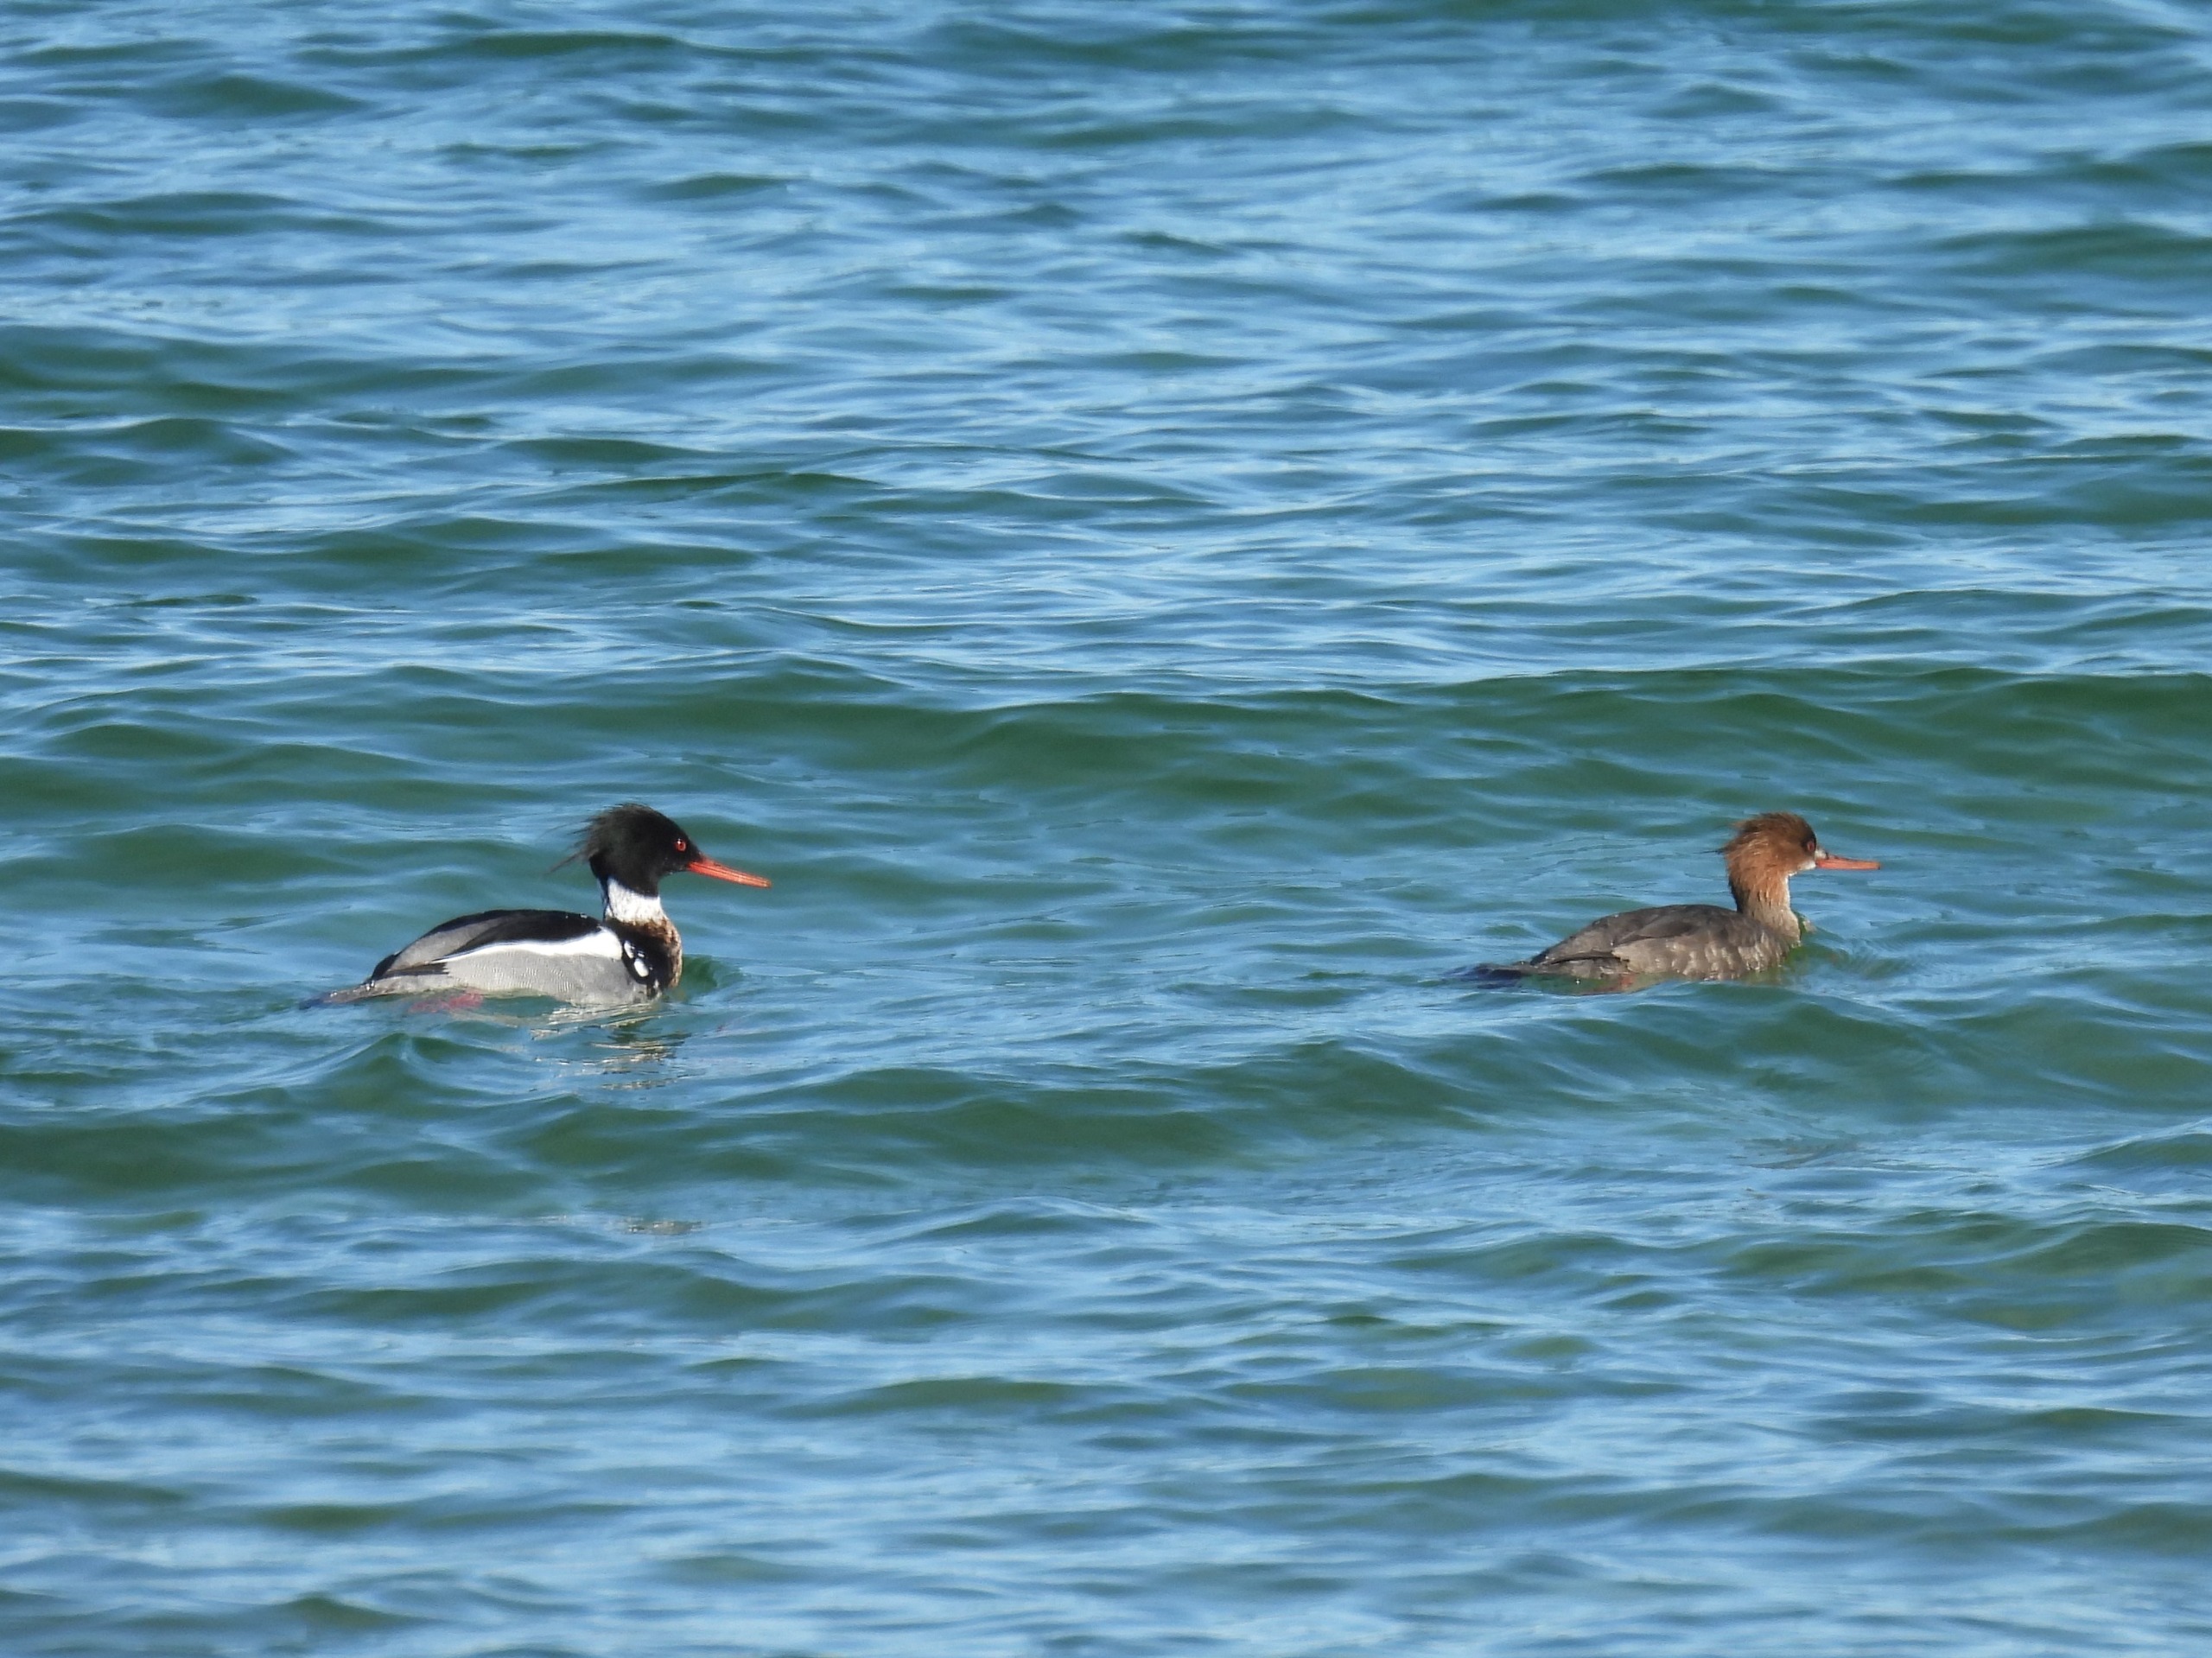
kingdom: Animalia
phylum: Chordata
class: Aves
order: Anseriformes
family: Anatidae
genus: Mergus
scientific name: Mergus serrator
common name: Toppet skallesluger
